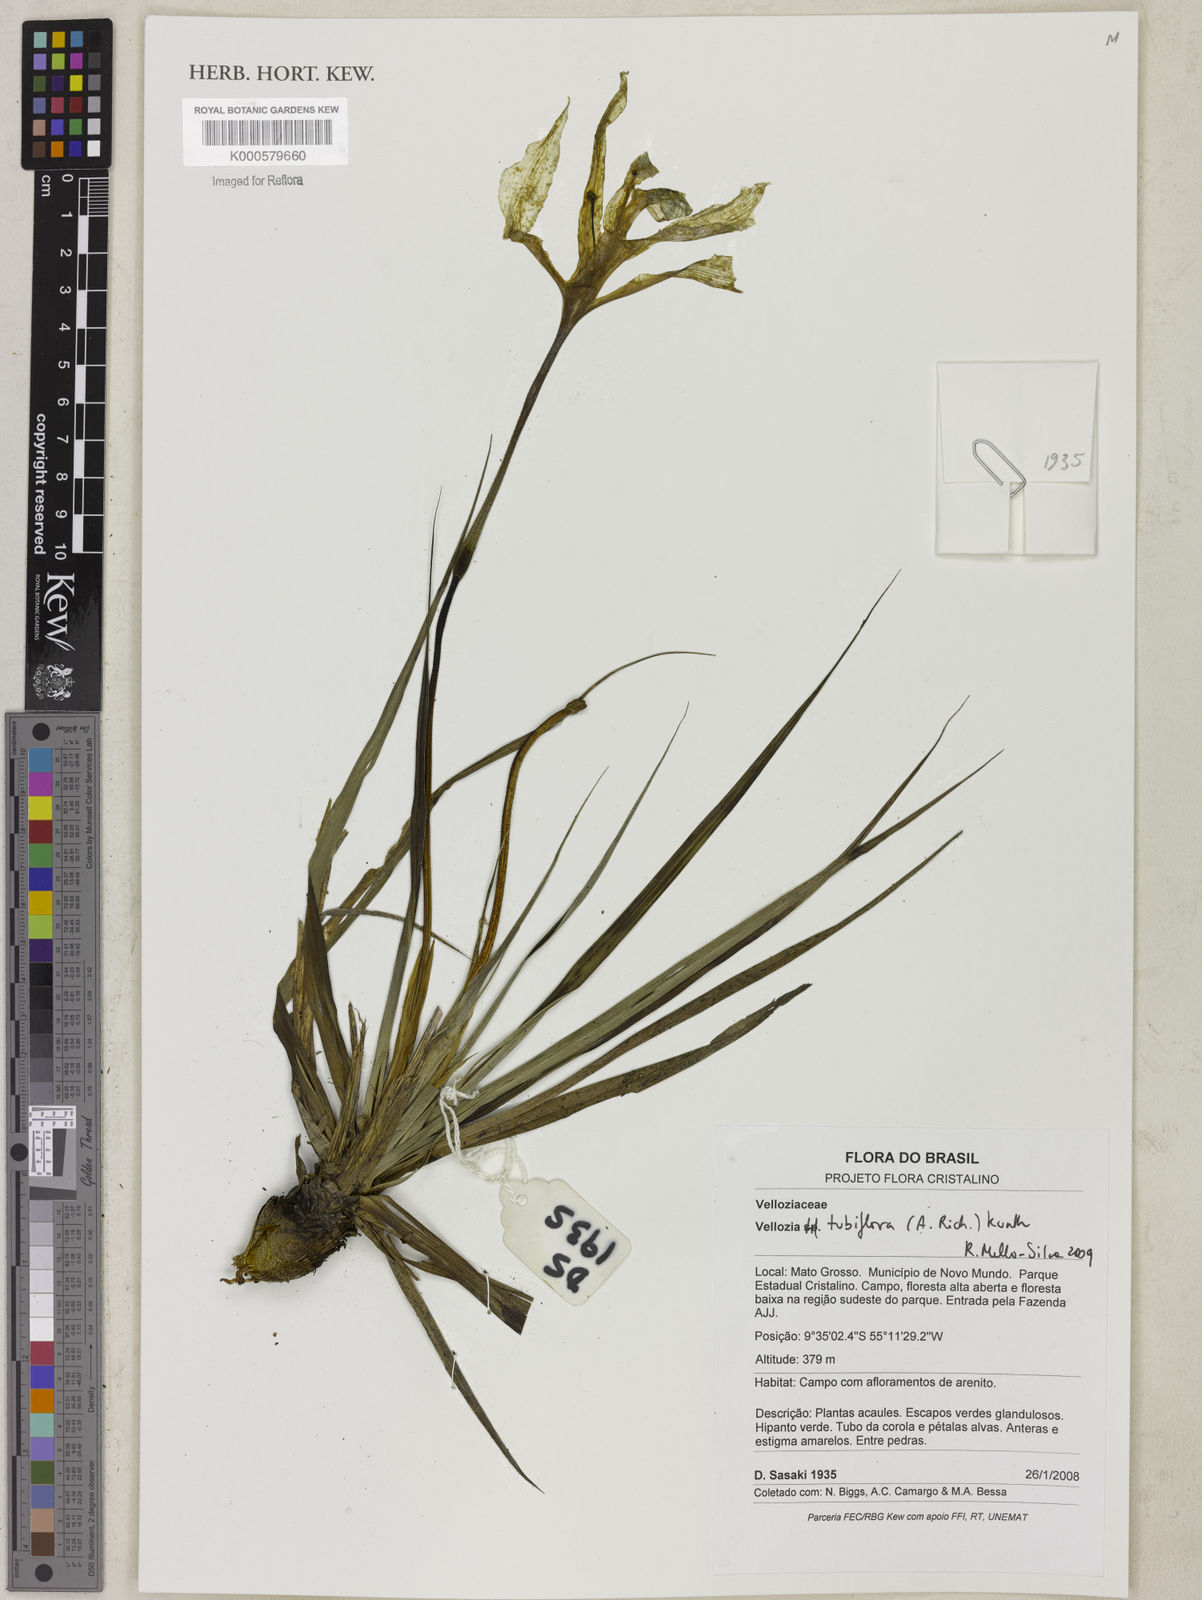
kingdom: Plantae
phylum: Tracheophyta
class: Liliopsida
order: Pandanales
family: Velloziaceae
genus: Vellozia
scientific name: Vellozia tubiflora
